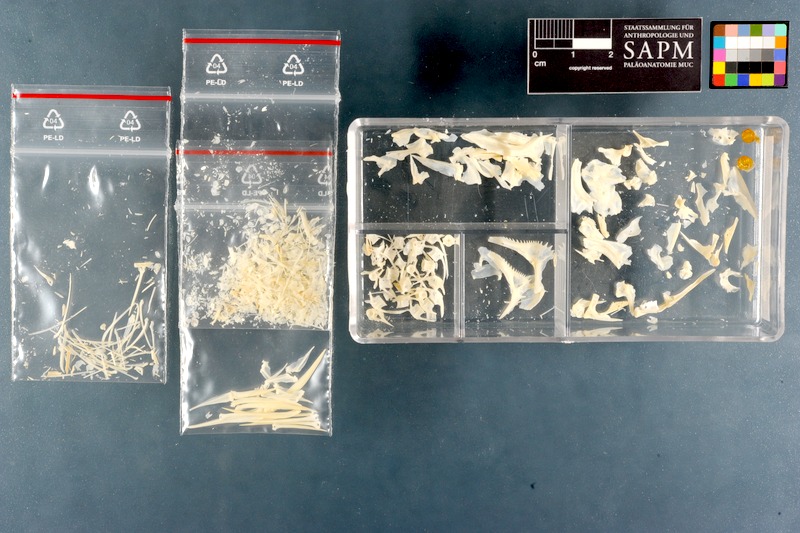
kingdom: Animalia
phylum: Chordata
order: Perciformes
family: Haemulidae
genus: Pomadasys
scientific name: Pomadasys commersonnii
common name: Smallspotted grunter
